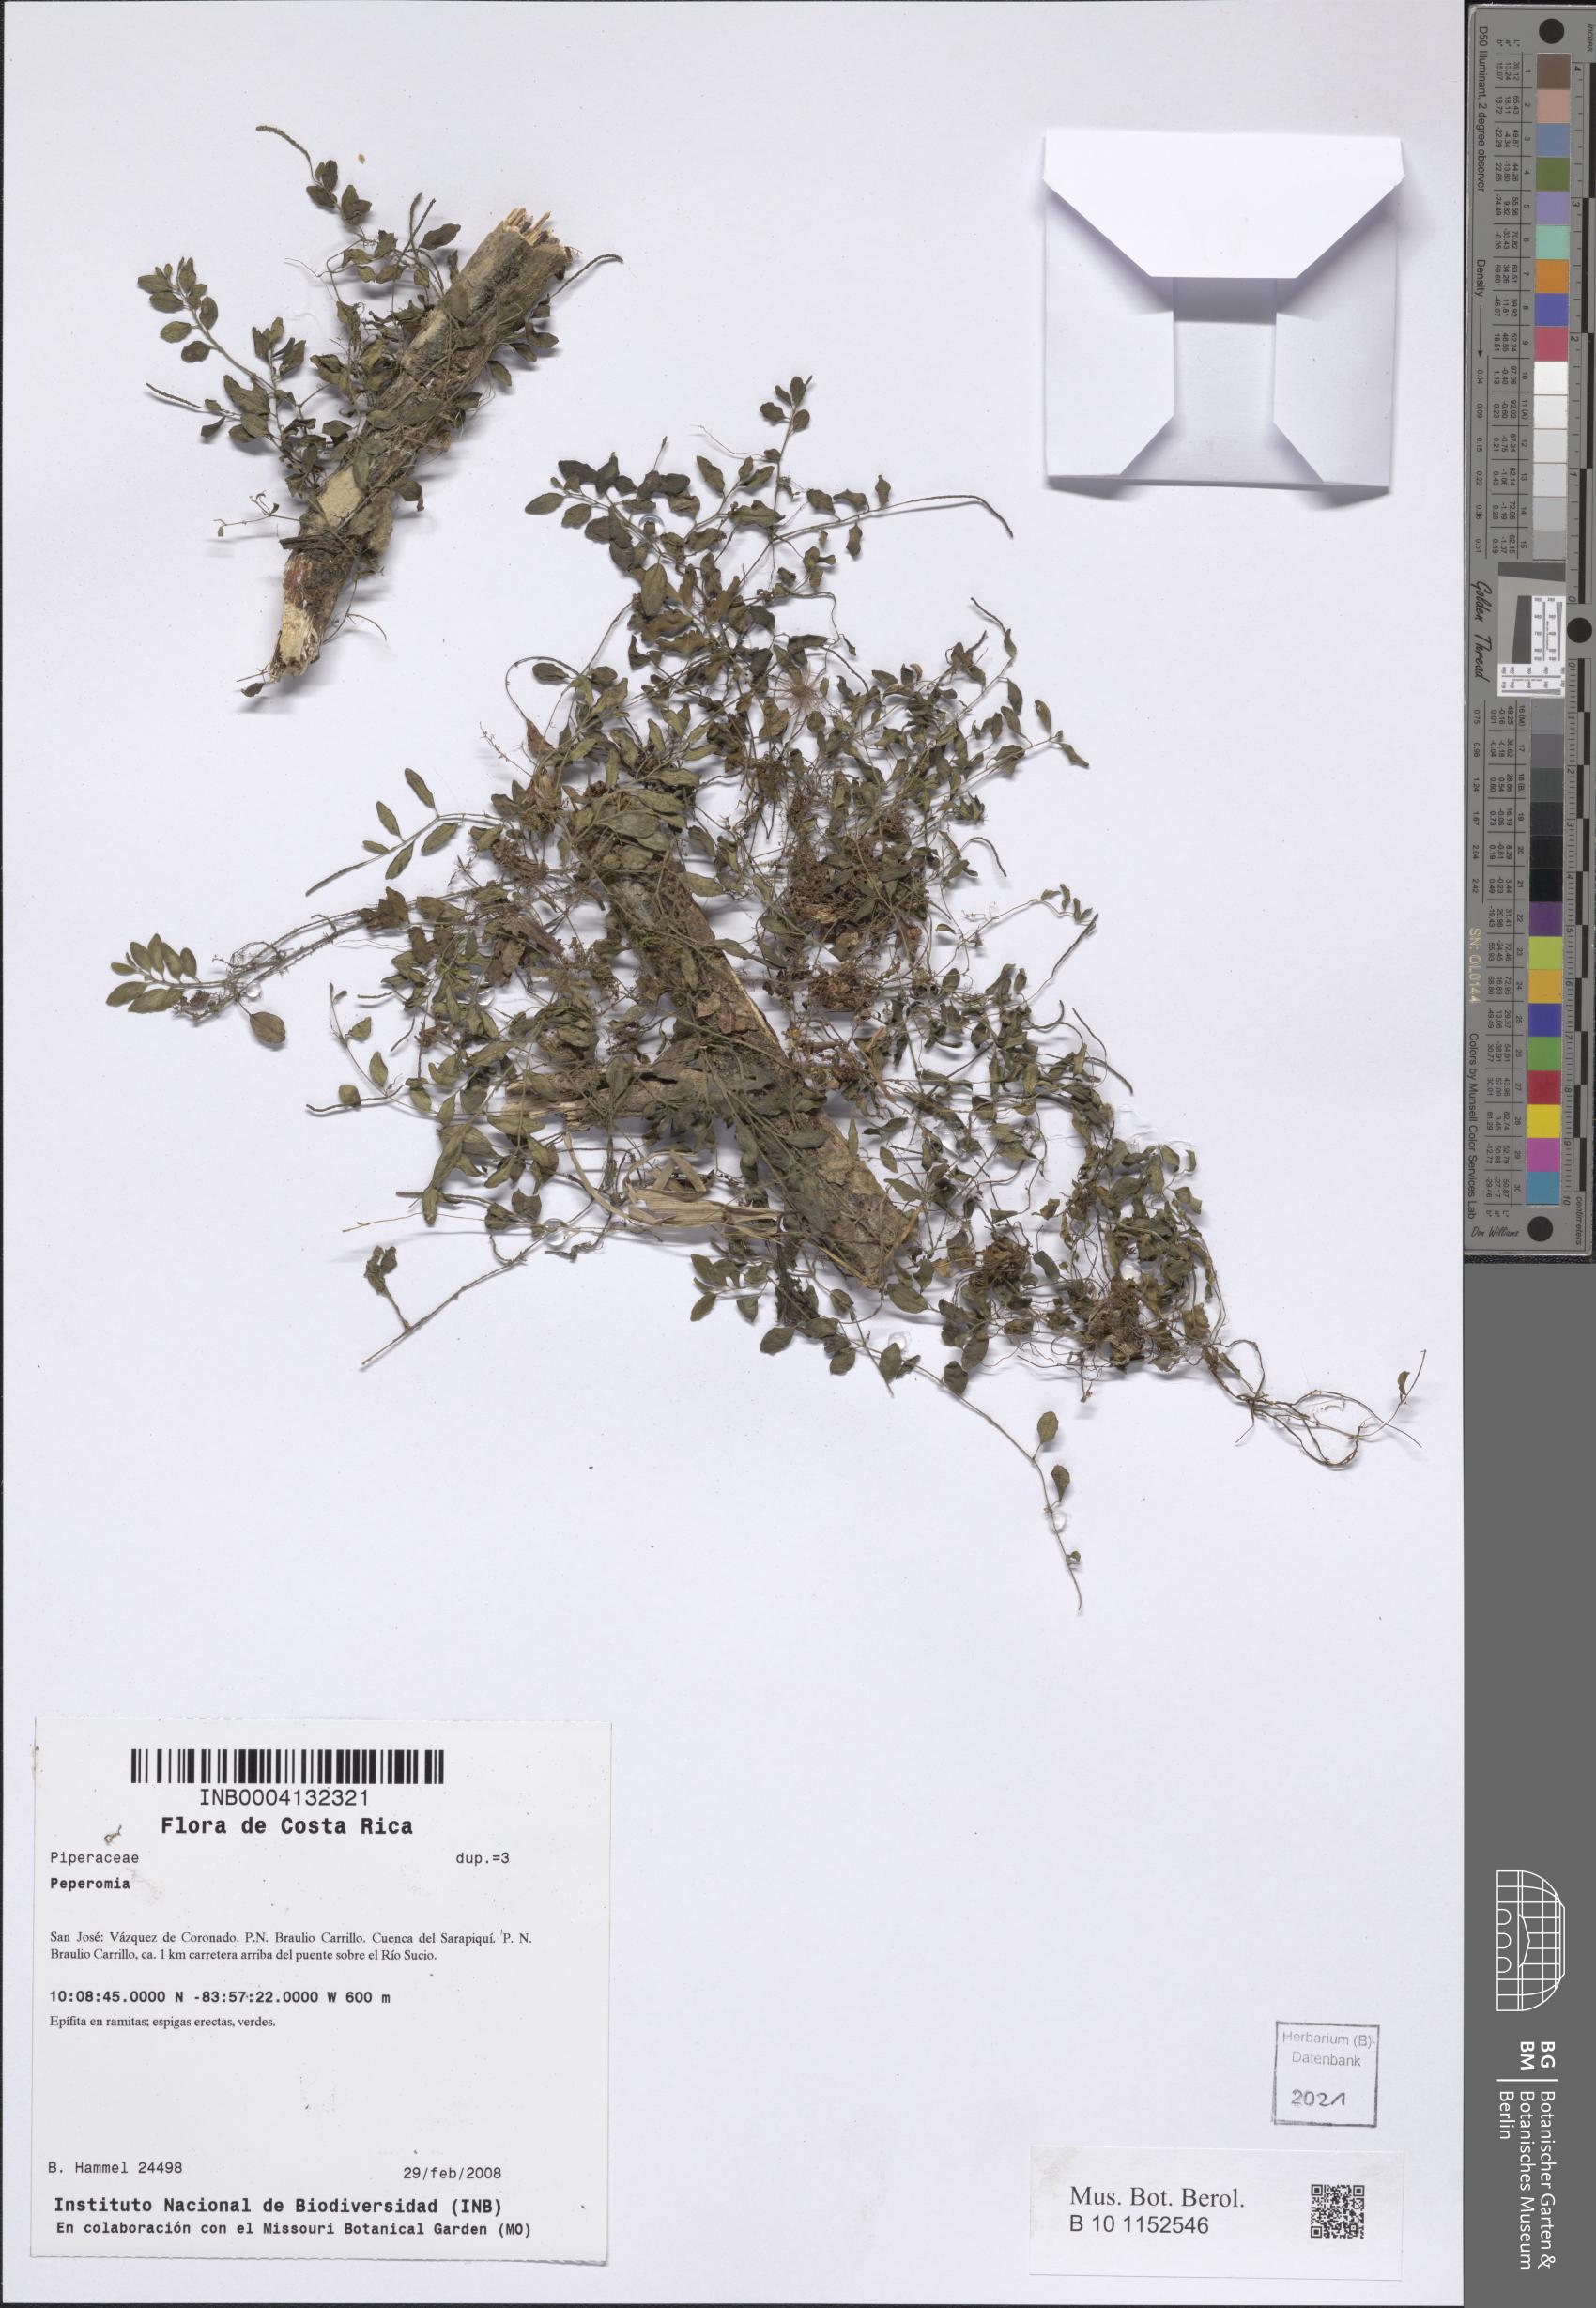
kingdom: Plantae
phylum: Tracheophyta
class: Magnoliopsida
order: Piperales
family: Piperaceae
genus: Peperomia
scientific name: Peperomia
